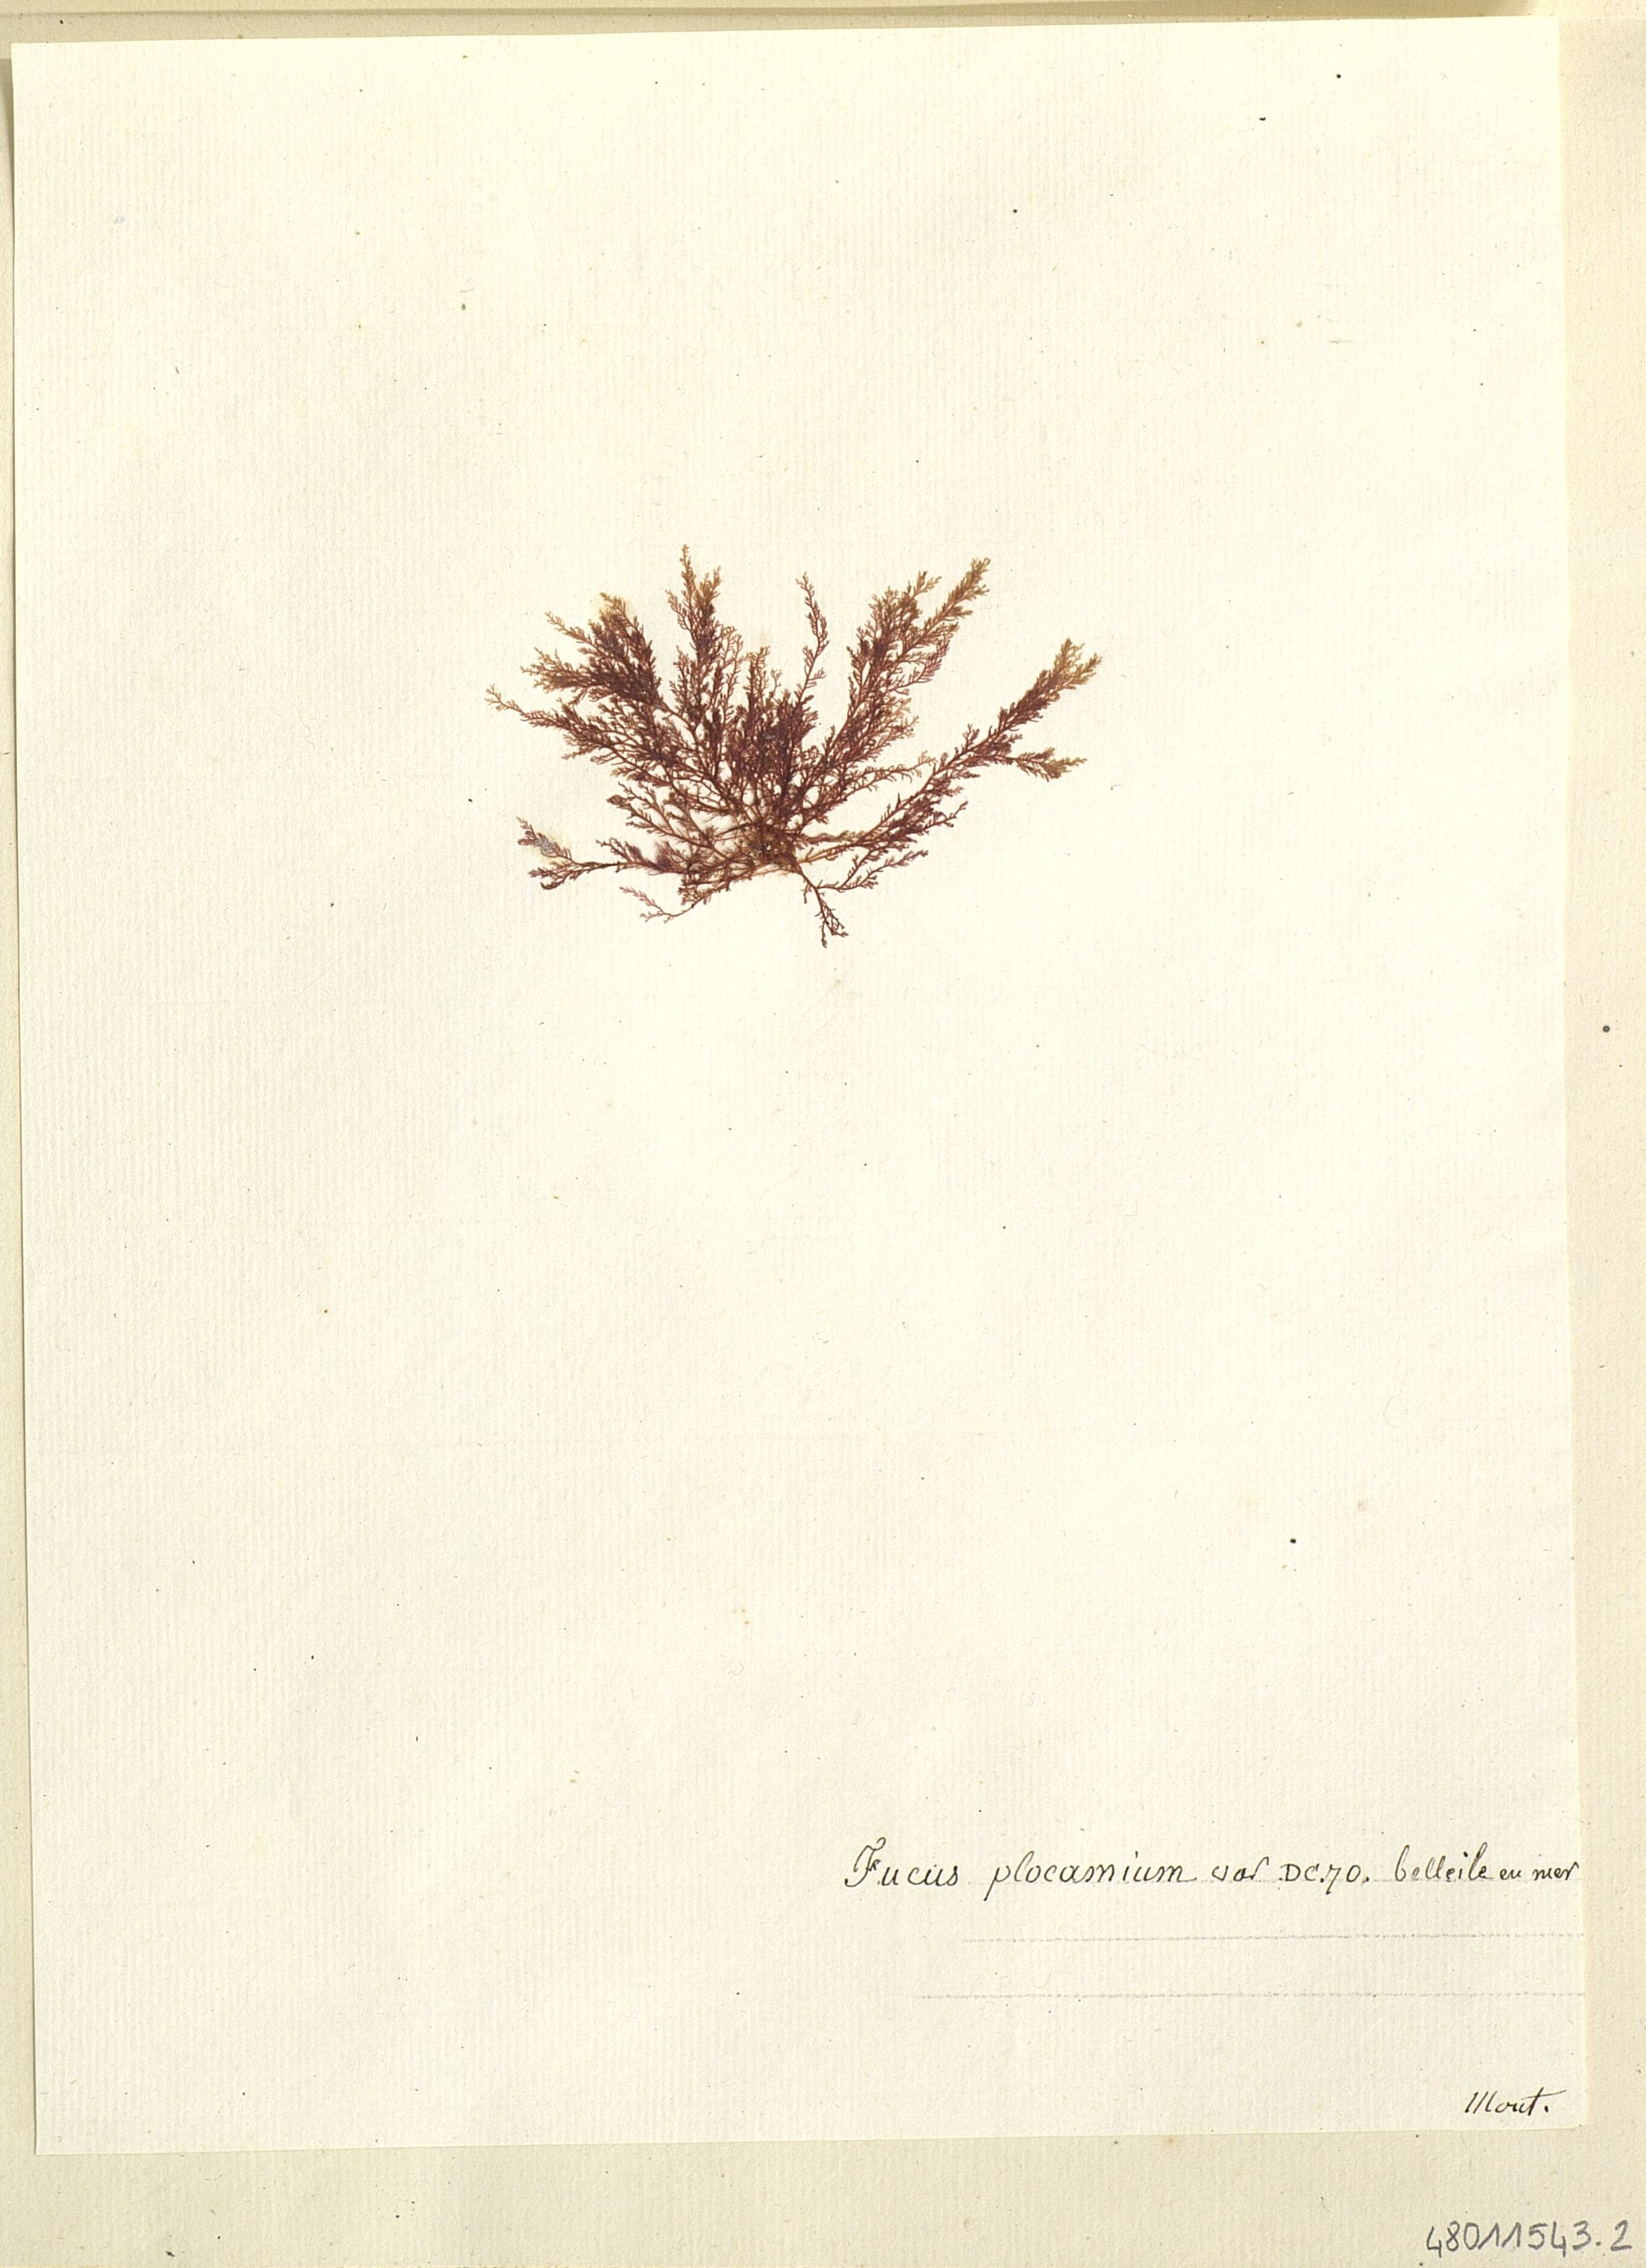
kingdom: Chromista
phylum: Ochrophyta
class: Phaeophyceae
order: Fucales
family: Fucaceae
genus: Fucus
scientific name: Fucus
